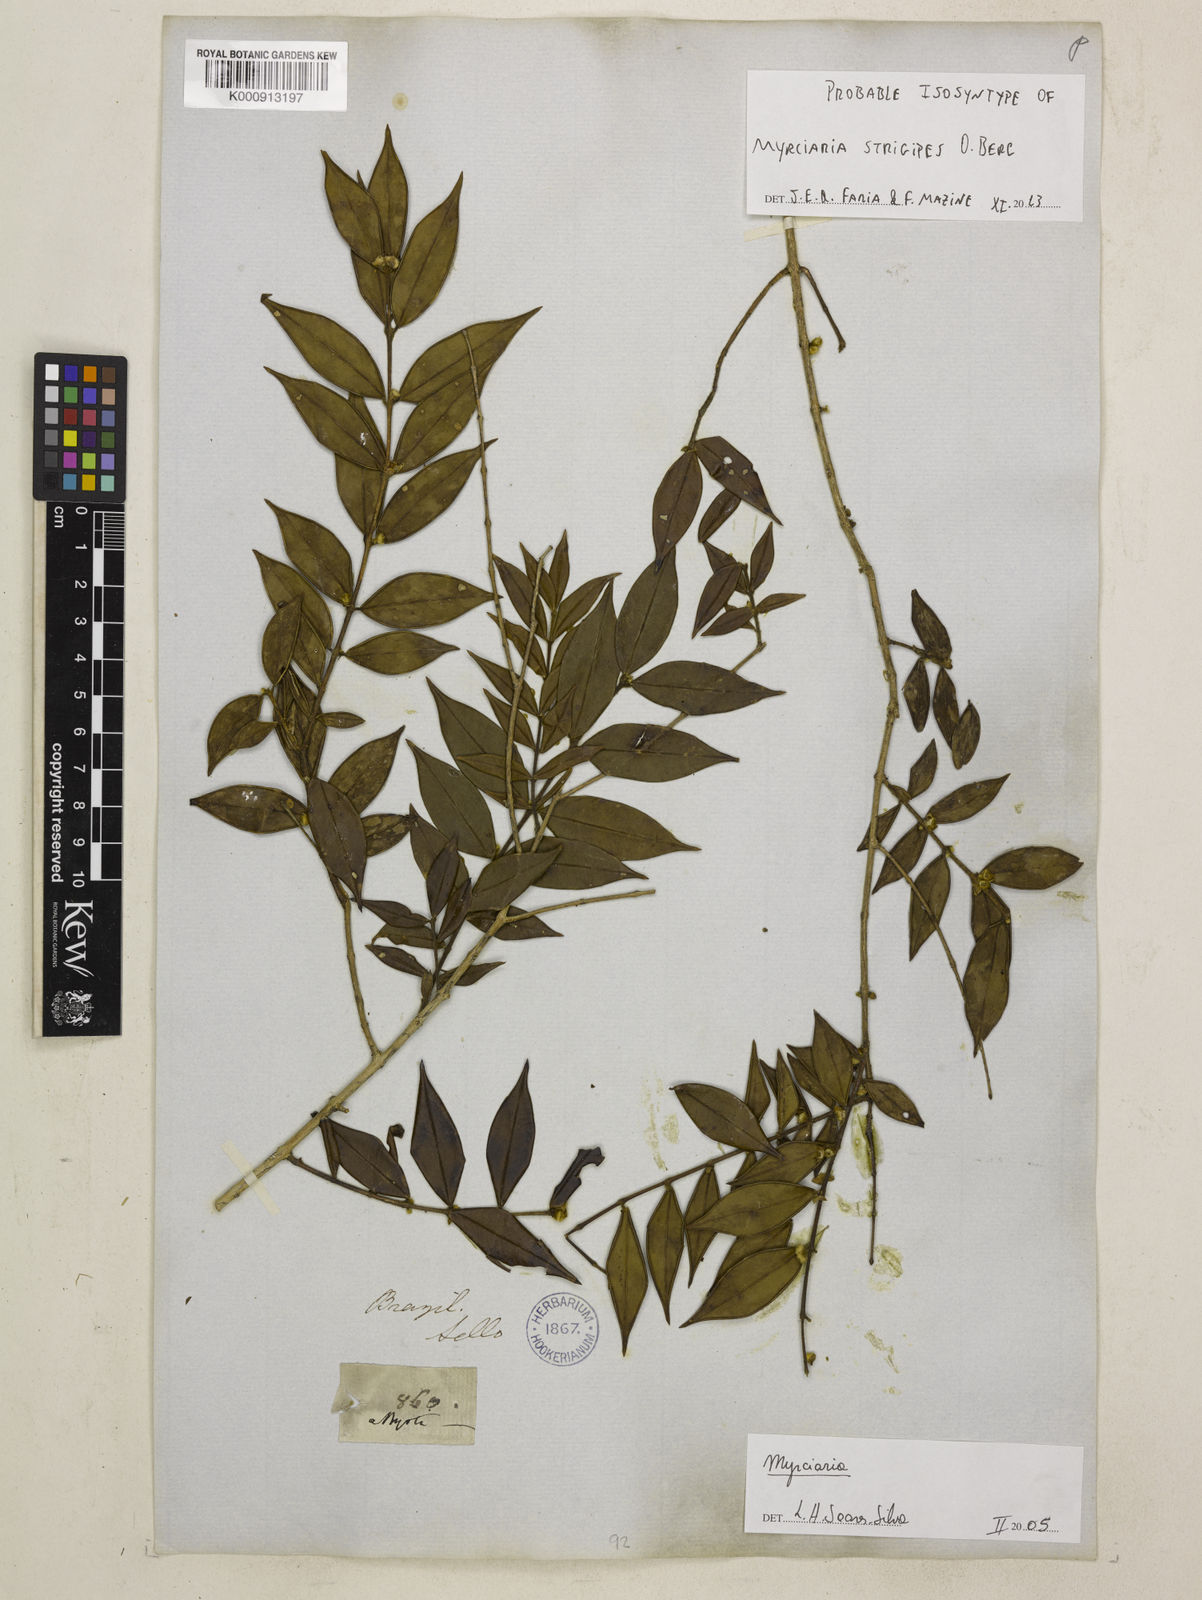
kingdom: Plantae
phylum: Tracheophyta
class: Magnoliopsida
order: Myrtales
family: Myrtaceae
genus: Myrciaria
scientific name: Myrciaria strigipes
